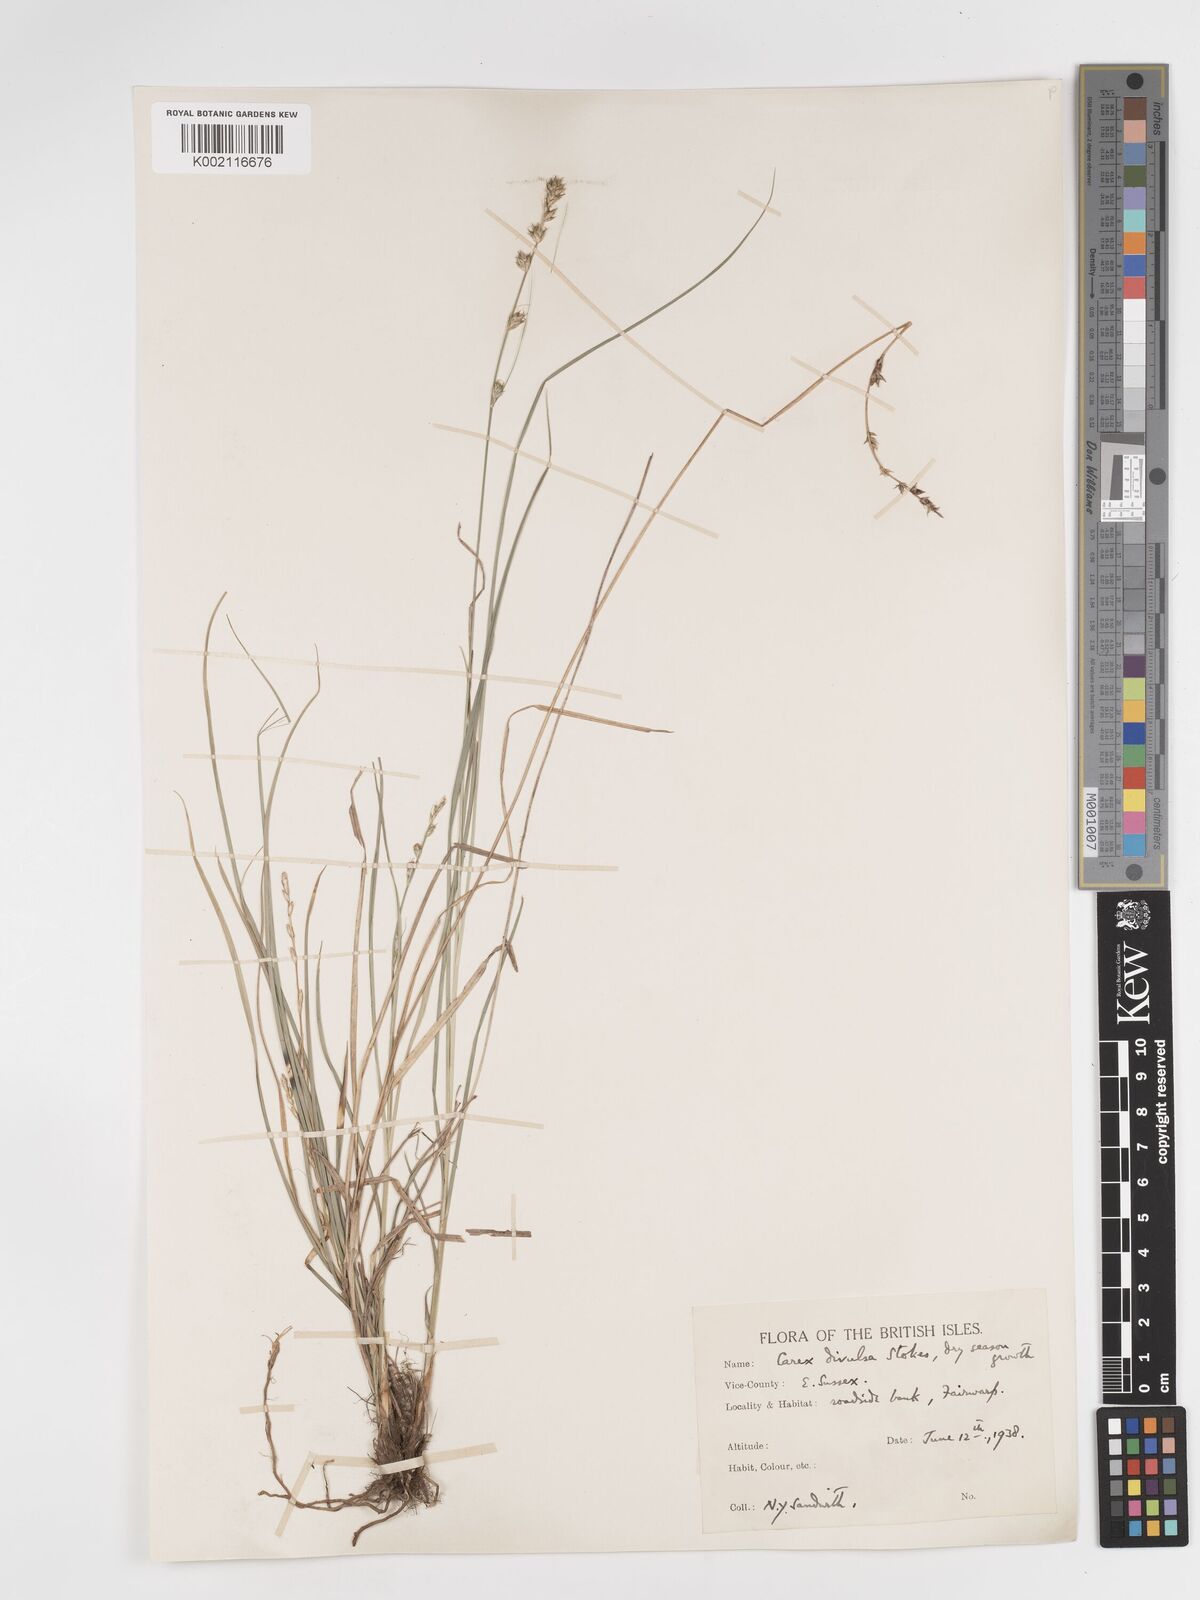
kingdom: Plantae
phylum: Tracheophyta
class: Liliopsida
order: Poales
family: Cyperaceae
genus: Carex
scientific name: Carex divulsa
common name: Grassland sedge
